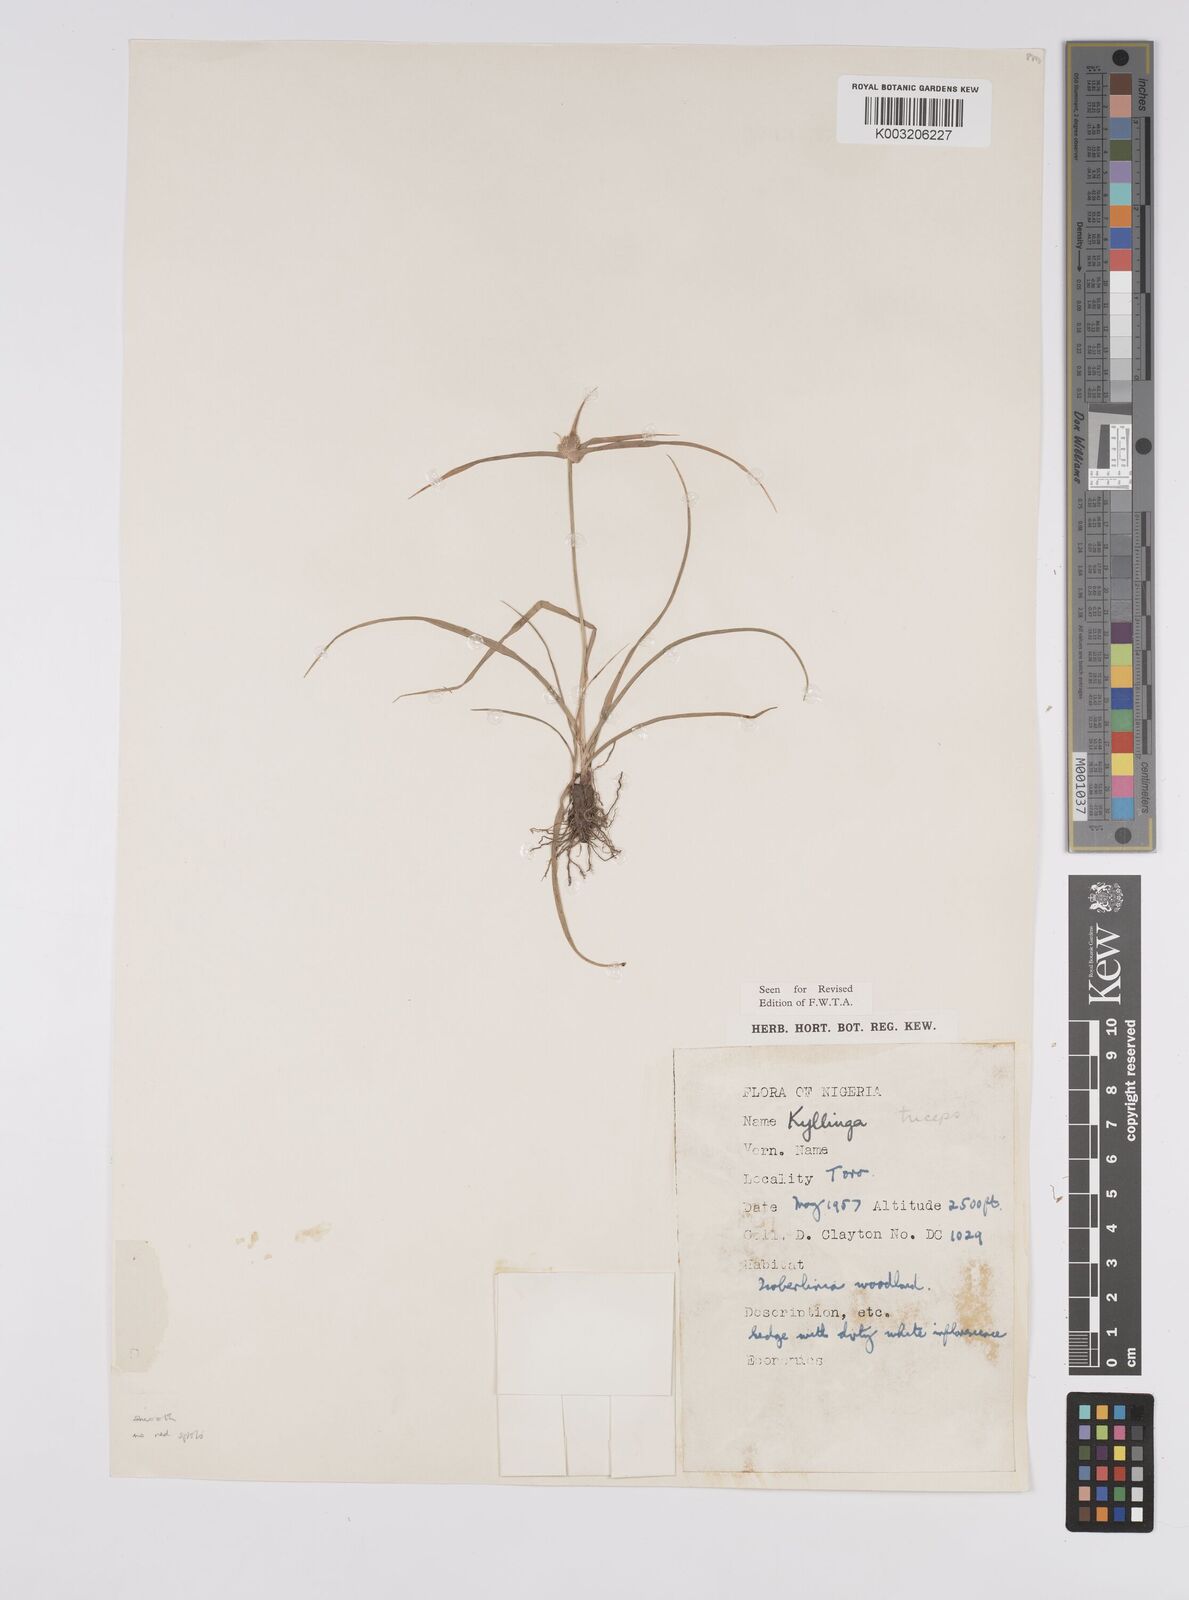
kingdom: Plantae
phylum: Tracheophyta
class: Liliopsida
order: Poales
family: Cyperaceae
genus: Cyperus
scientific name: Cyperus
